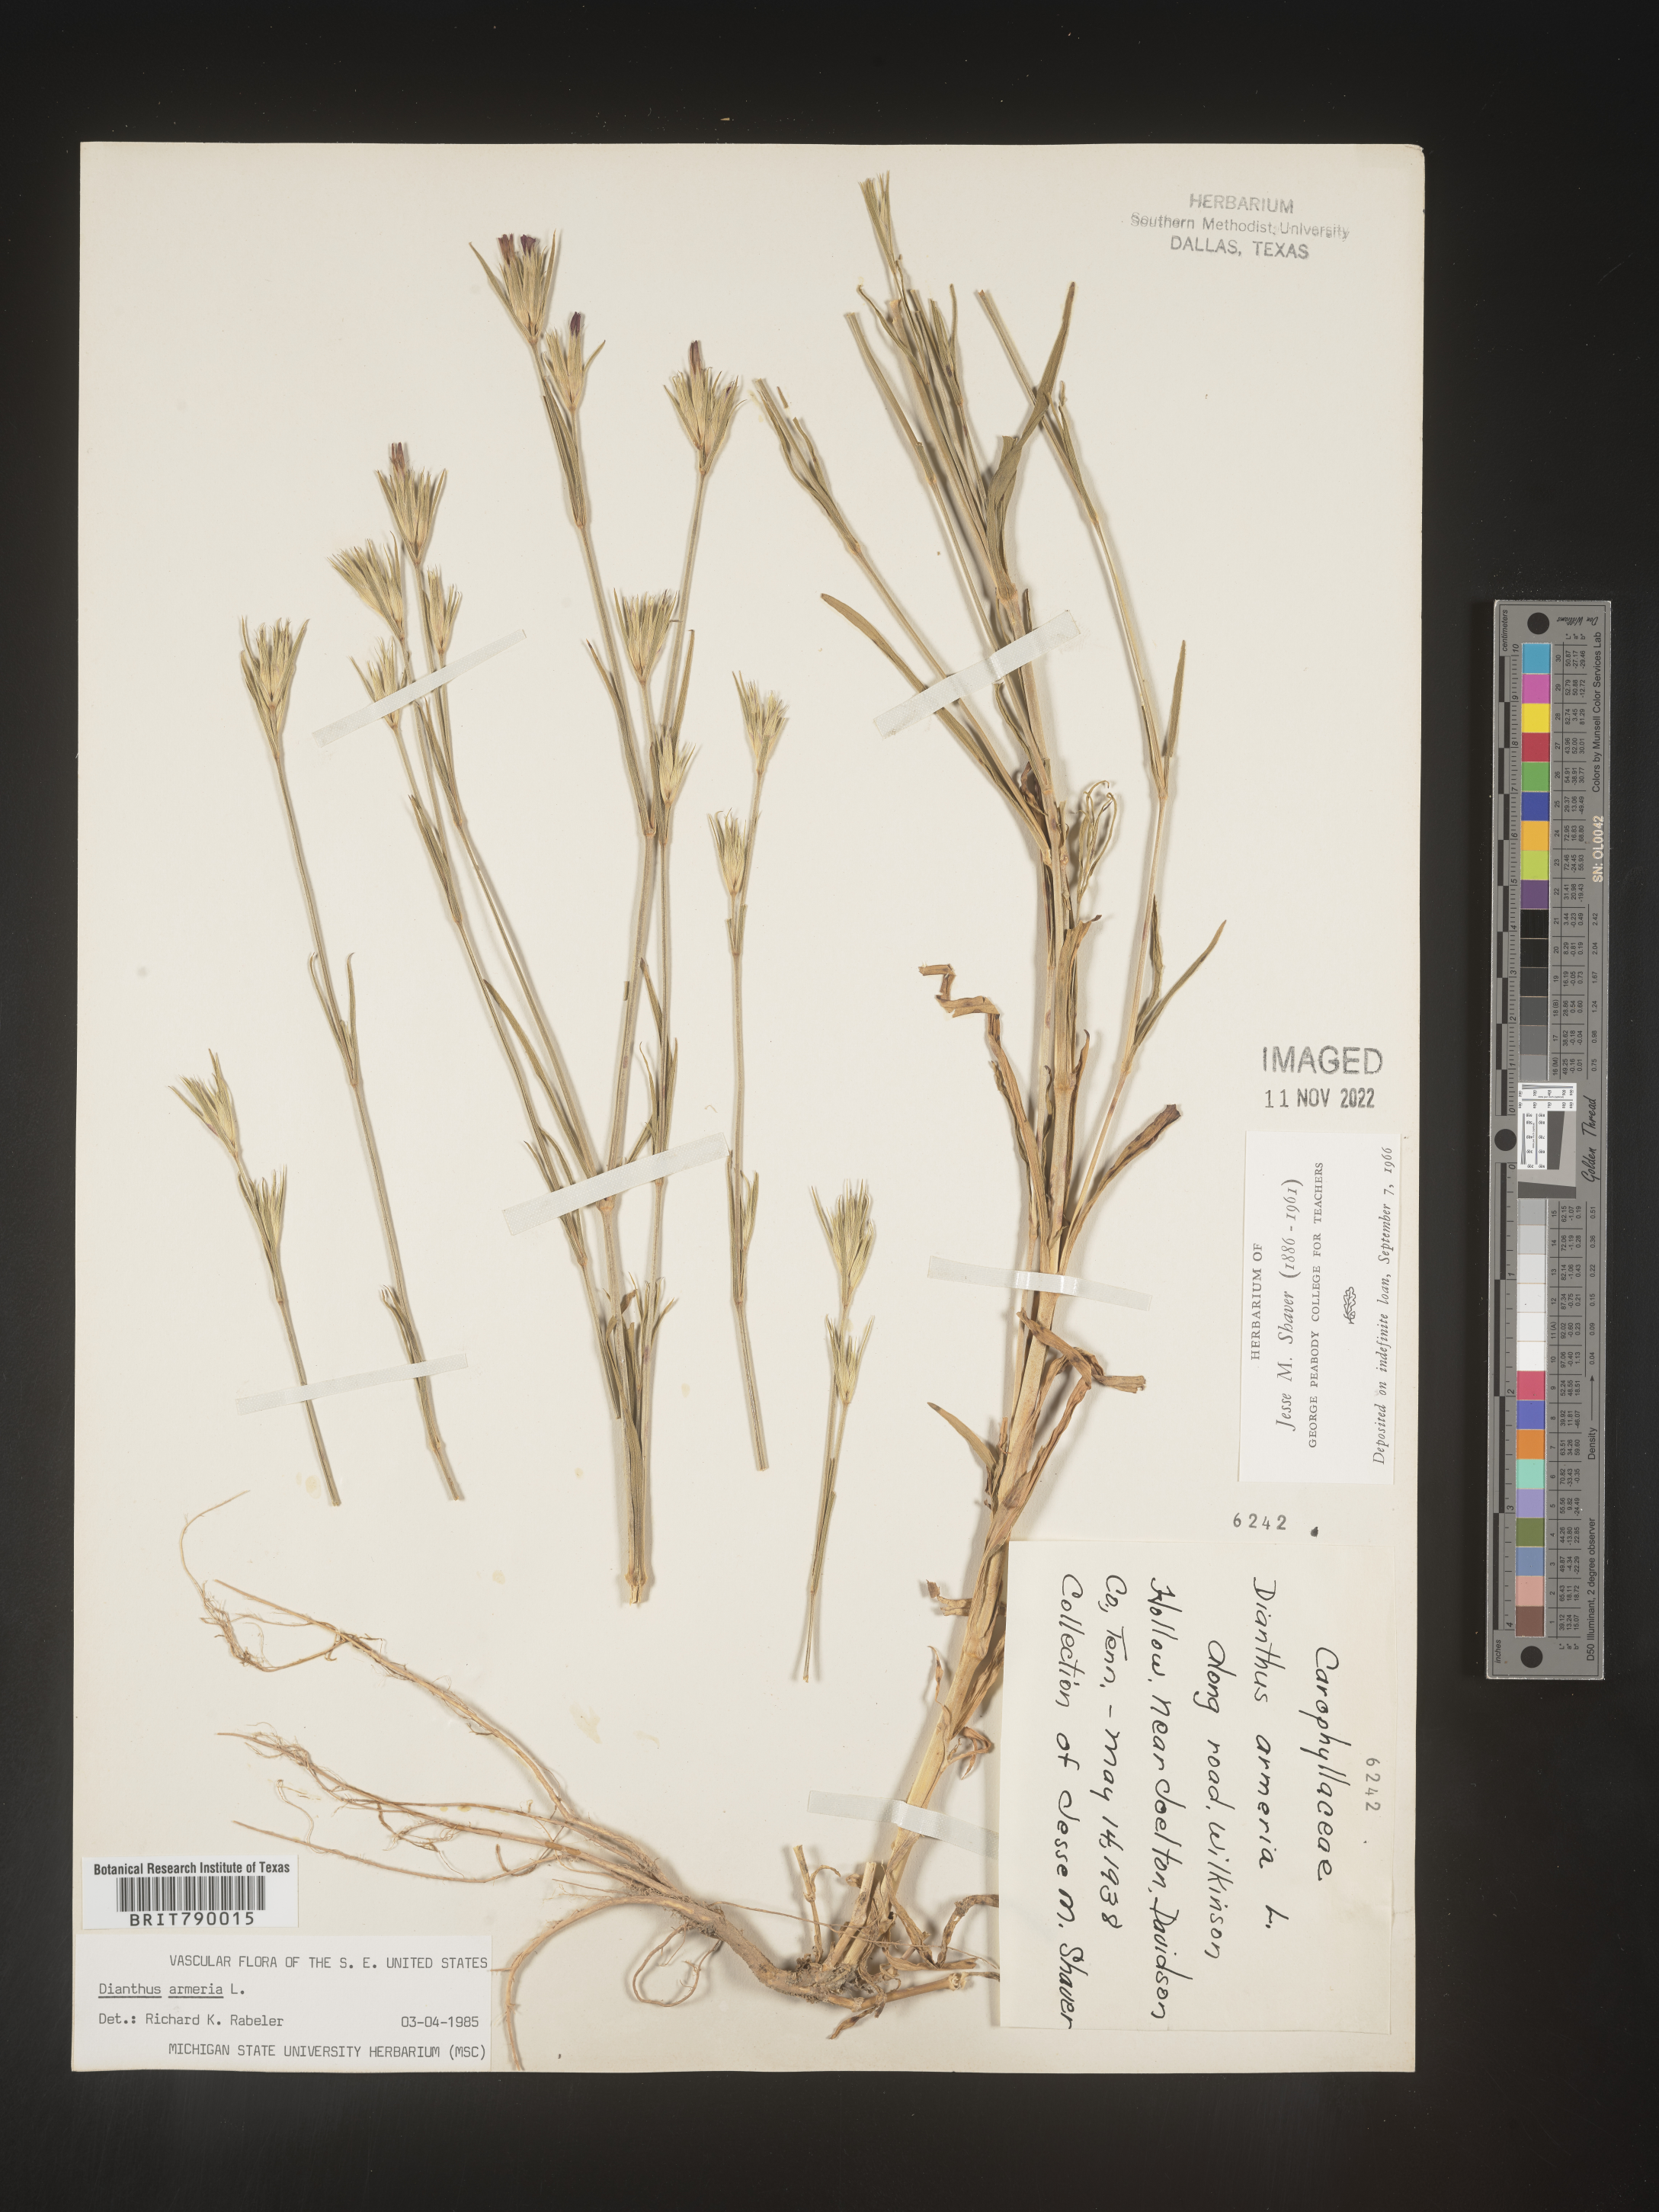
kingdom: Plantae
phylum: Tracheophyta
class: Magnoliopsida
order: Caryophyllales
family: Caryophyllaceae
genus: Dianthus
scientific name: Dianthus armeria
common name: Deptford pink
